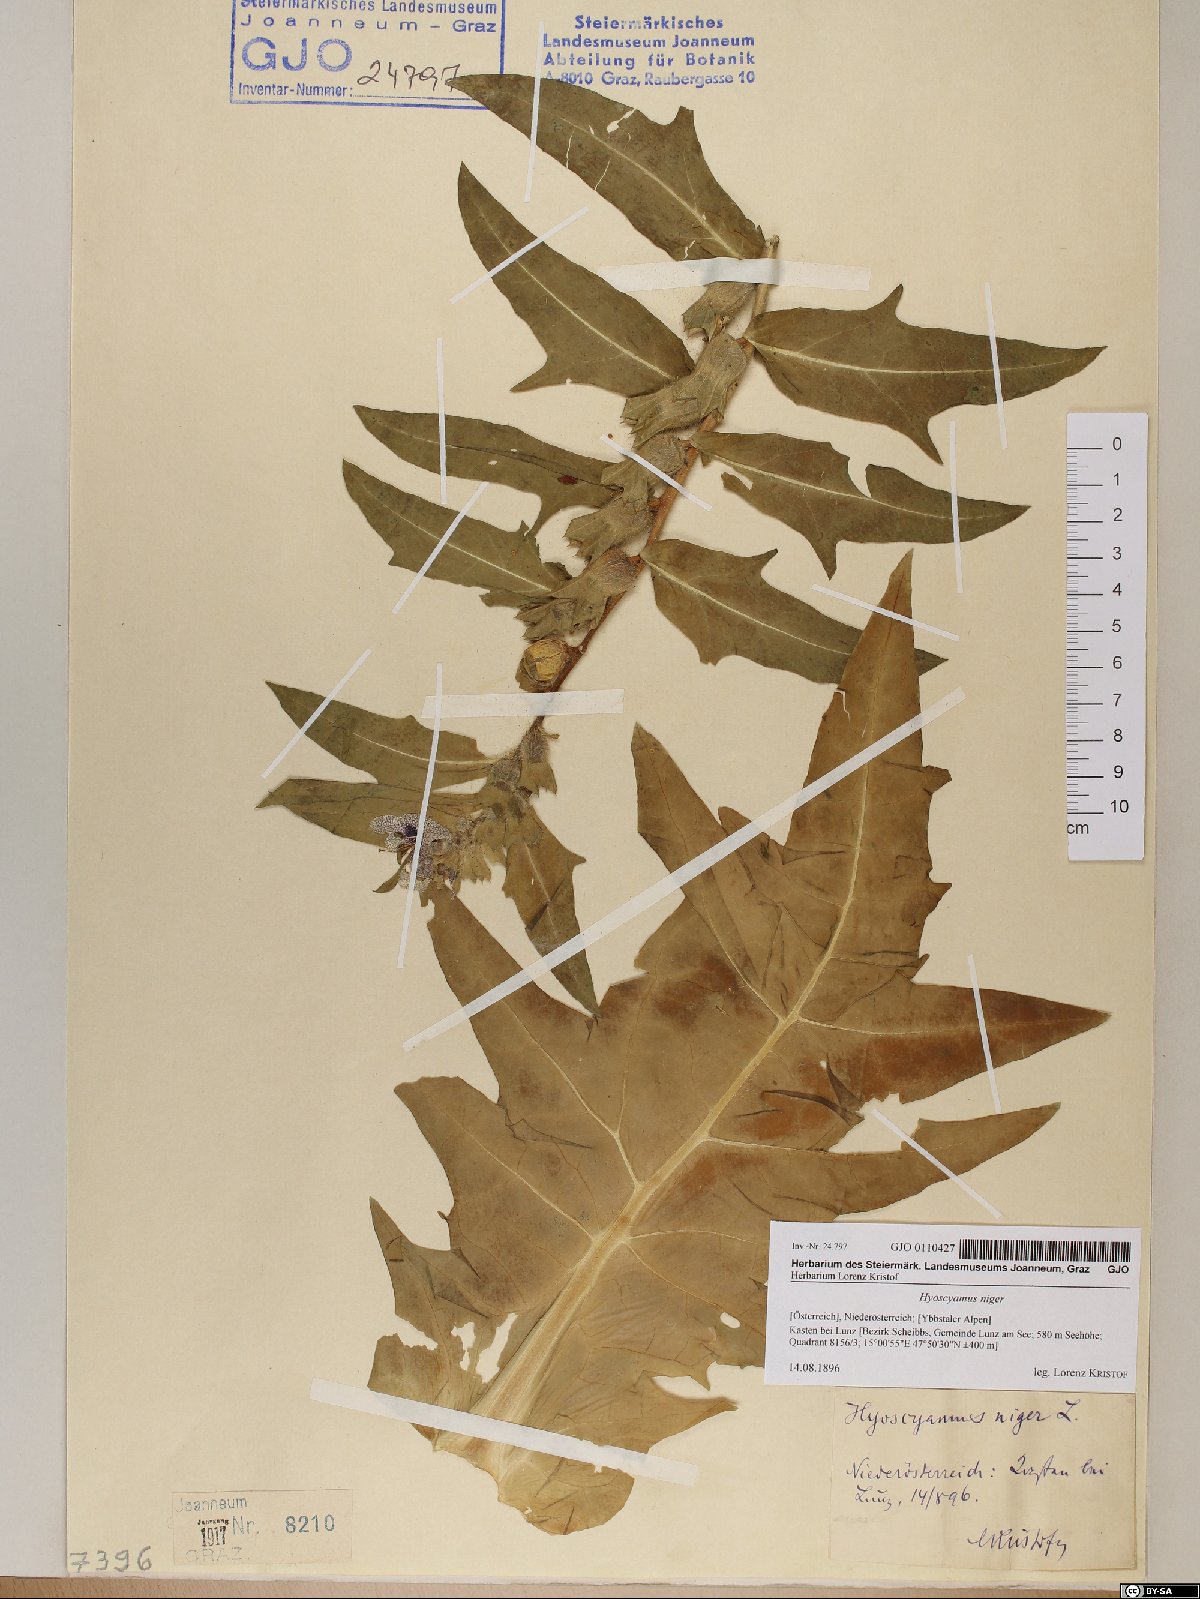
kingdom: Plantae
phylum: Tracheophyta
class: Magnoliopsida
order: Solanales
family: Solanaceae
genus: Hyoscyamus
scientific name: Hyoscyamus niger
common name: Henbane
